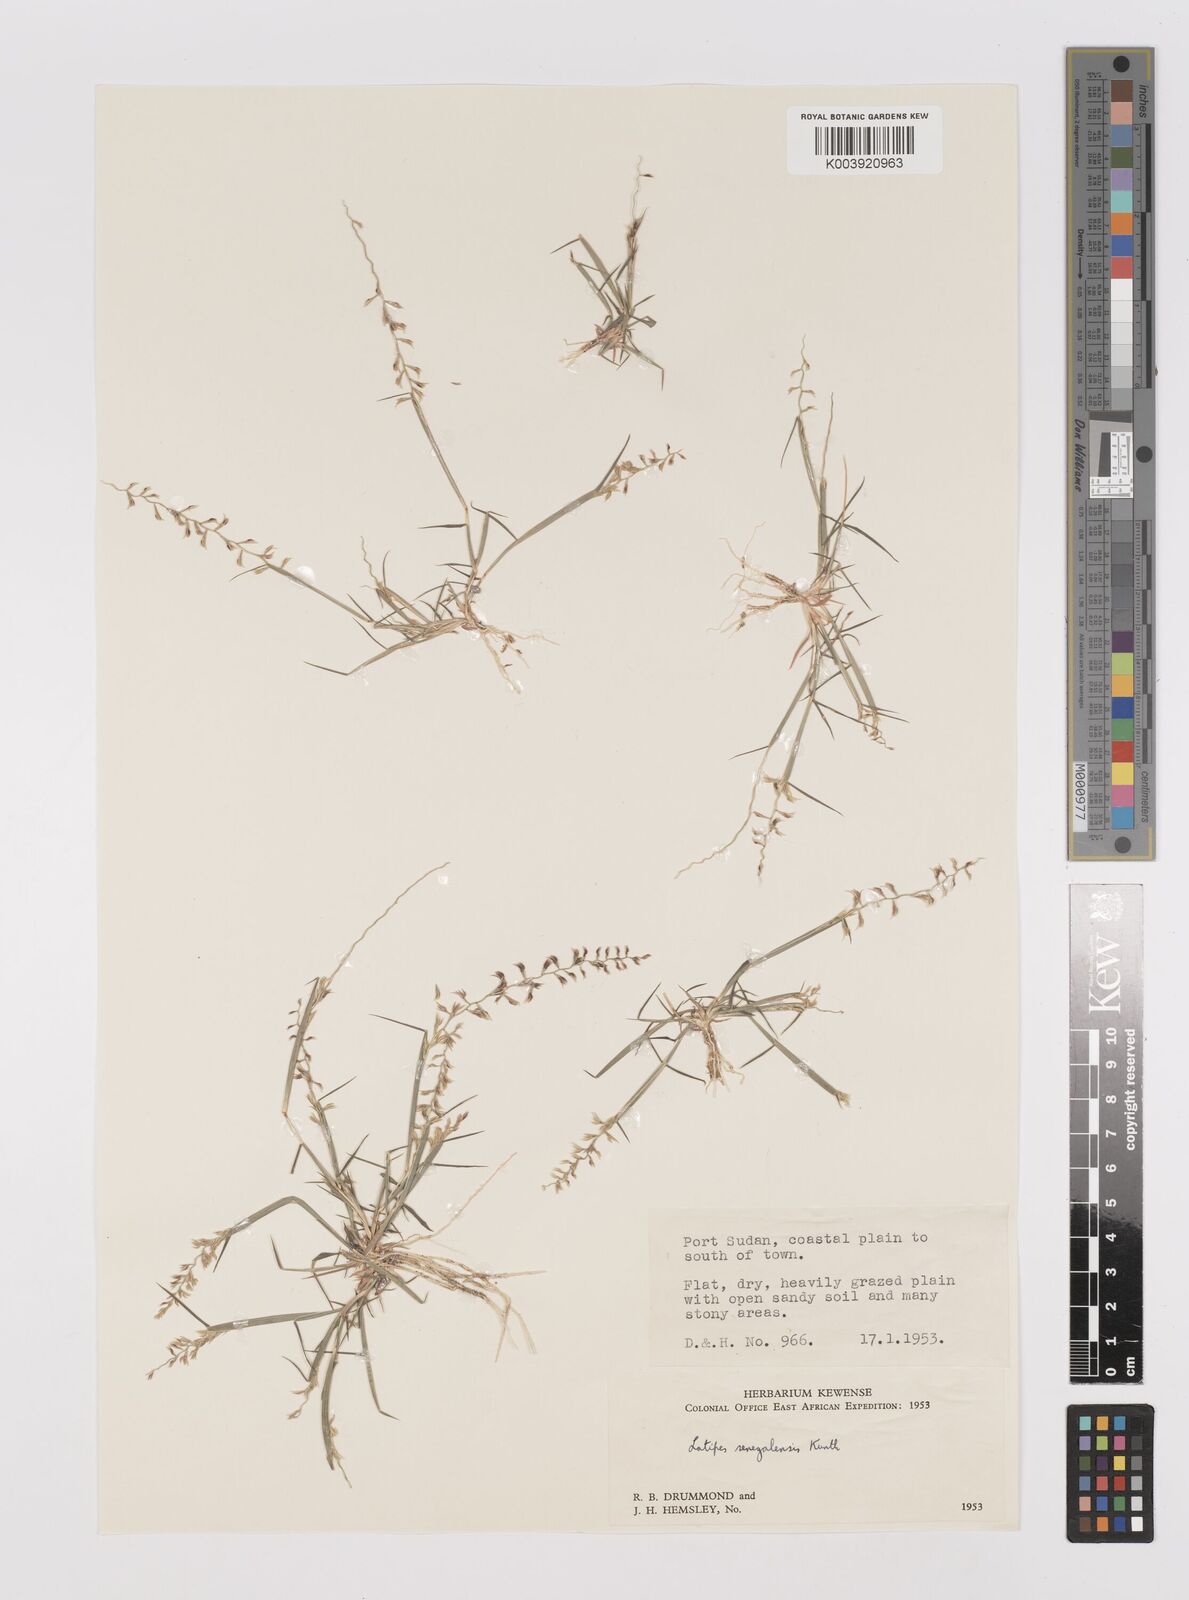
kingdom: Plantae
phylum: Tracheophyta
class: Liliopsida
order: Poales
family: Poaceae
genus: Leptothrium
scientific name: Leptothrium senegalense
